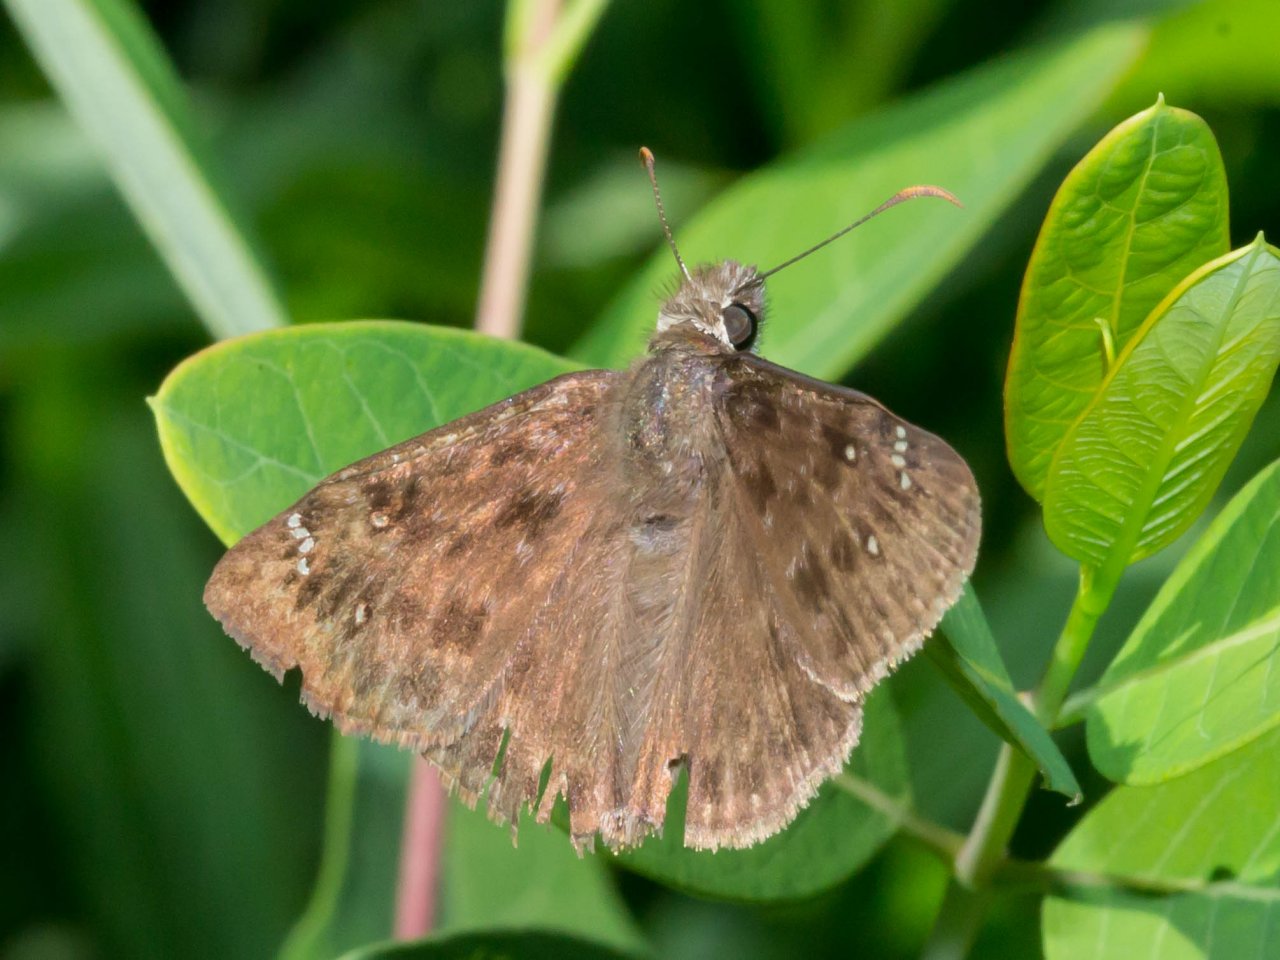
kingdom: Animalia
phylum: Arthropoda
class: Insecta
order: Lepidoptera
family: Hesperiidae
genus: Gesta
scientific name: Gesta
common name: Horace's Duskywing
